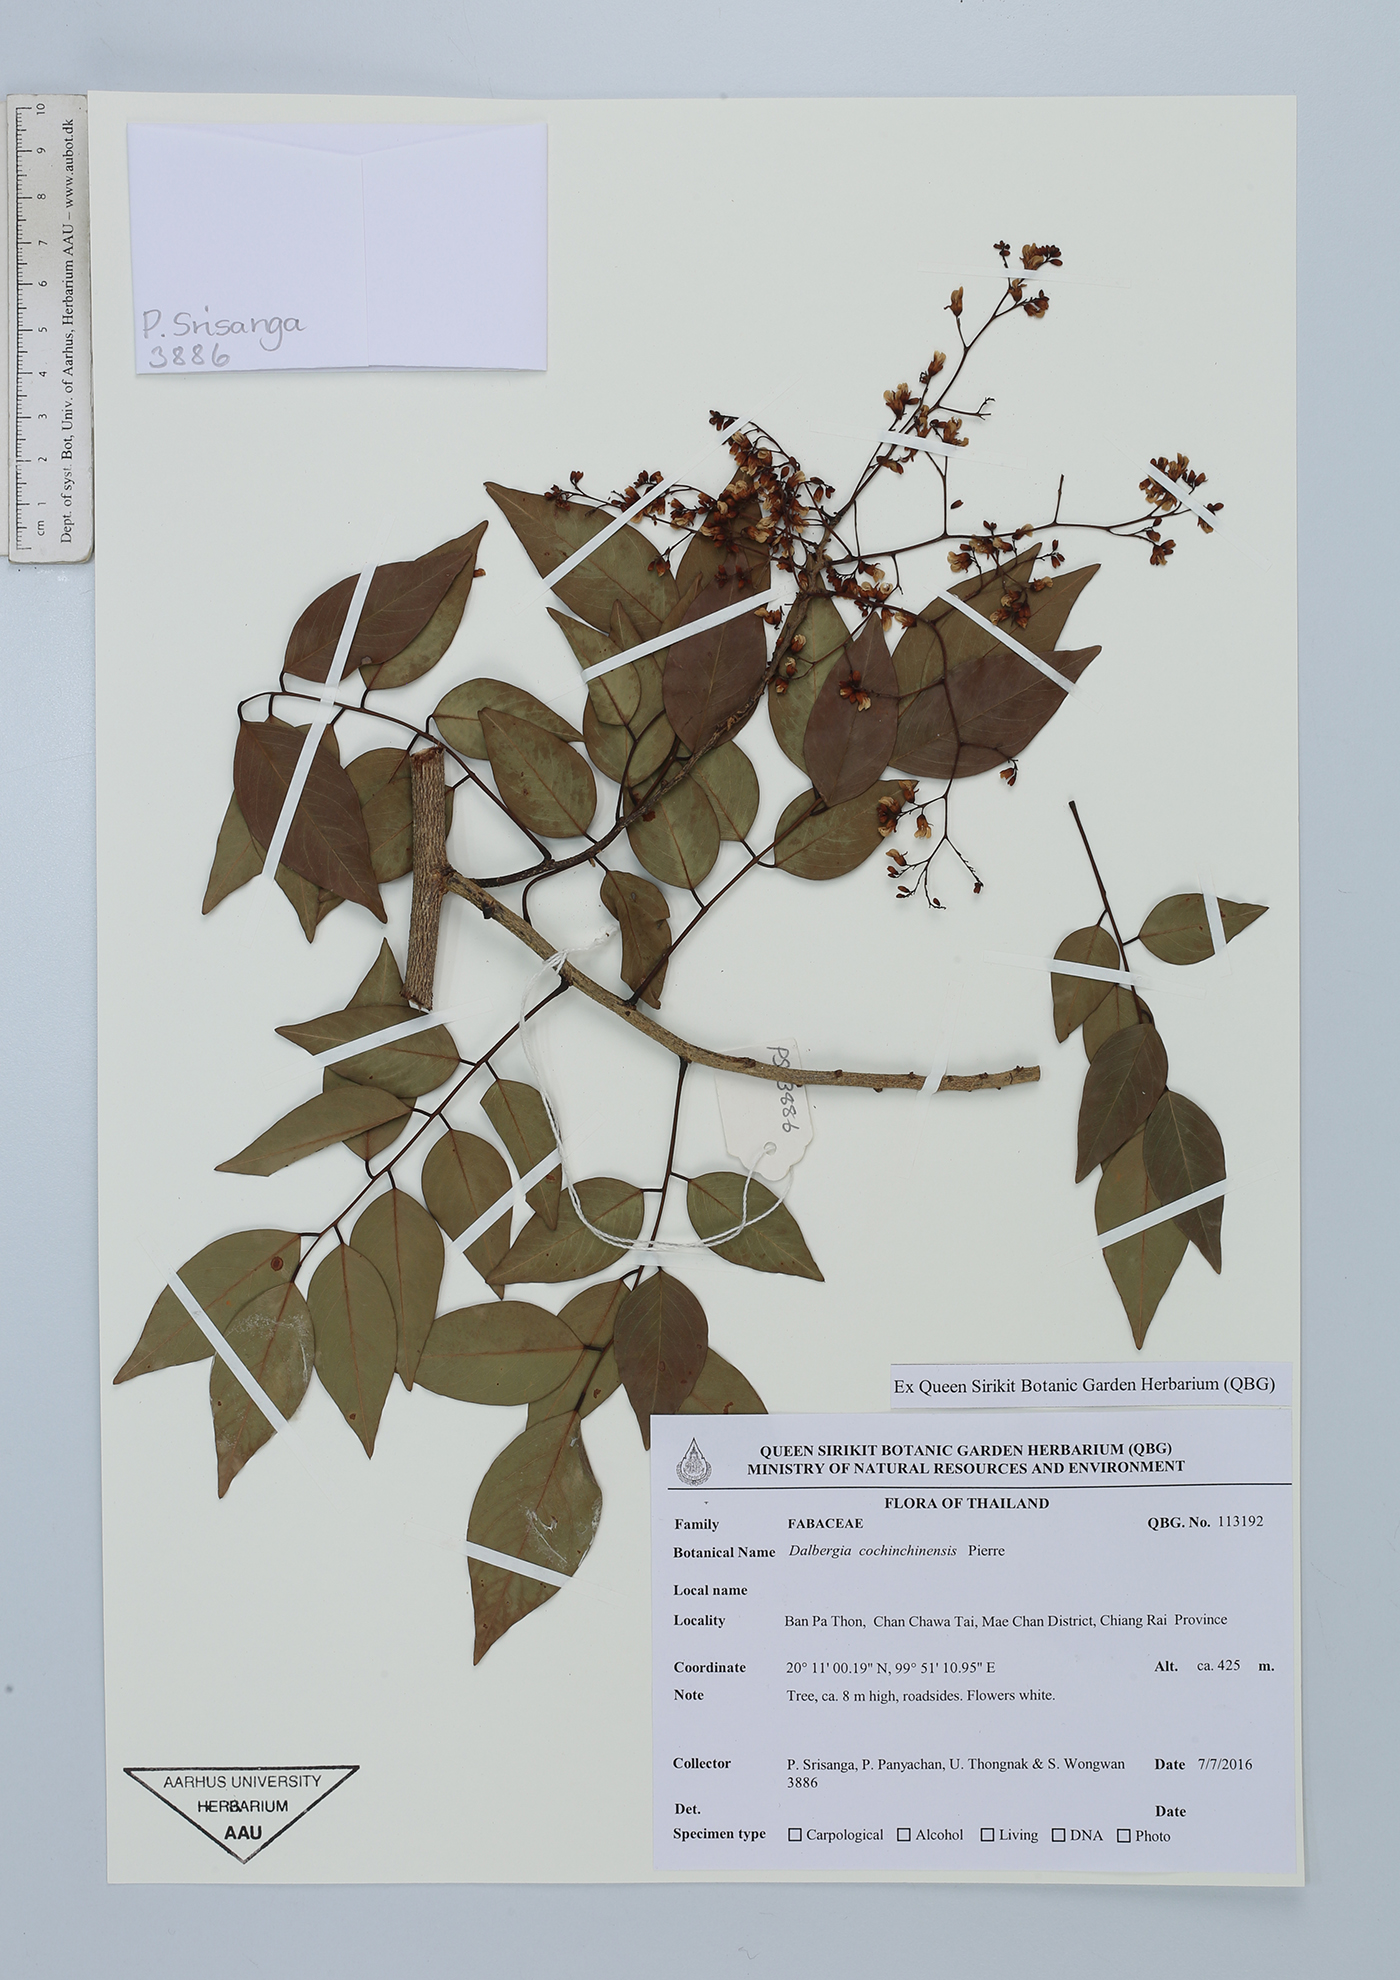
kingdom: Plantae
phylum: Tracheophyta
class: Magnoliopsida
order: Fabales
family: Fabaceae
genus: Dalbergia
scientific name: Dalbergia cochinchinensis
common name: Siamese rosewood
